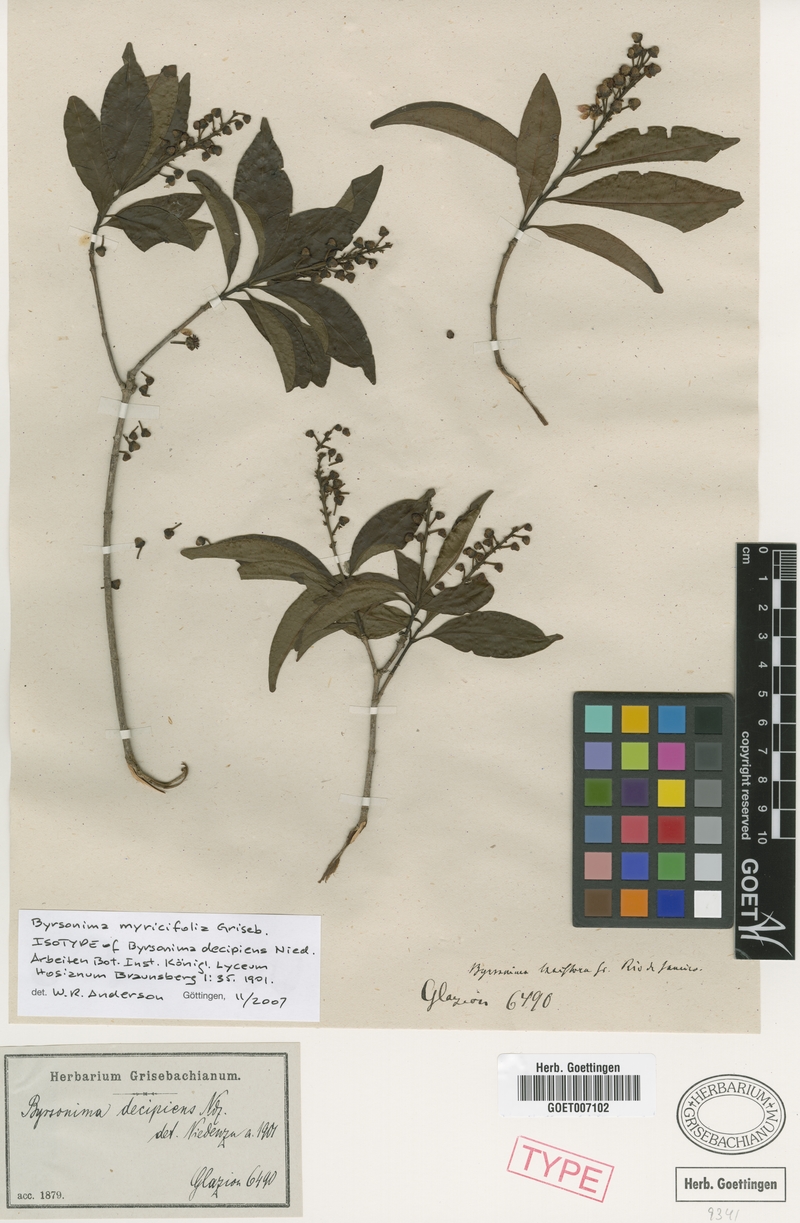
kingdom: Plantae
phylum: Tracheophyta
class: Magnoliopsida
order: Malpighiales
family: Malpighiaceae
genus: Byrsonima
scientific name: Byrsonima myricifolia
